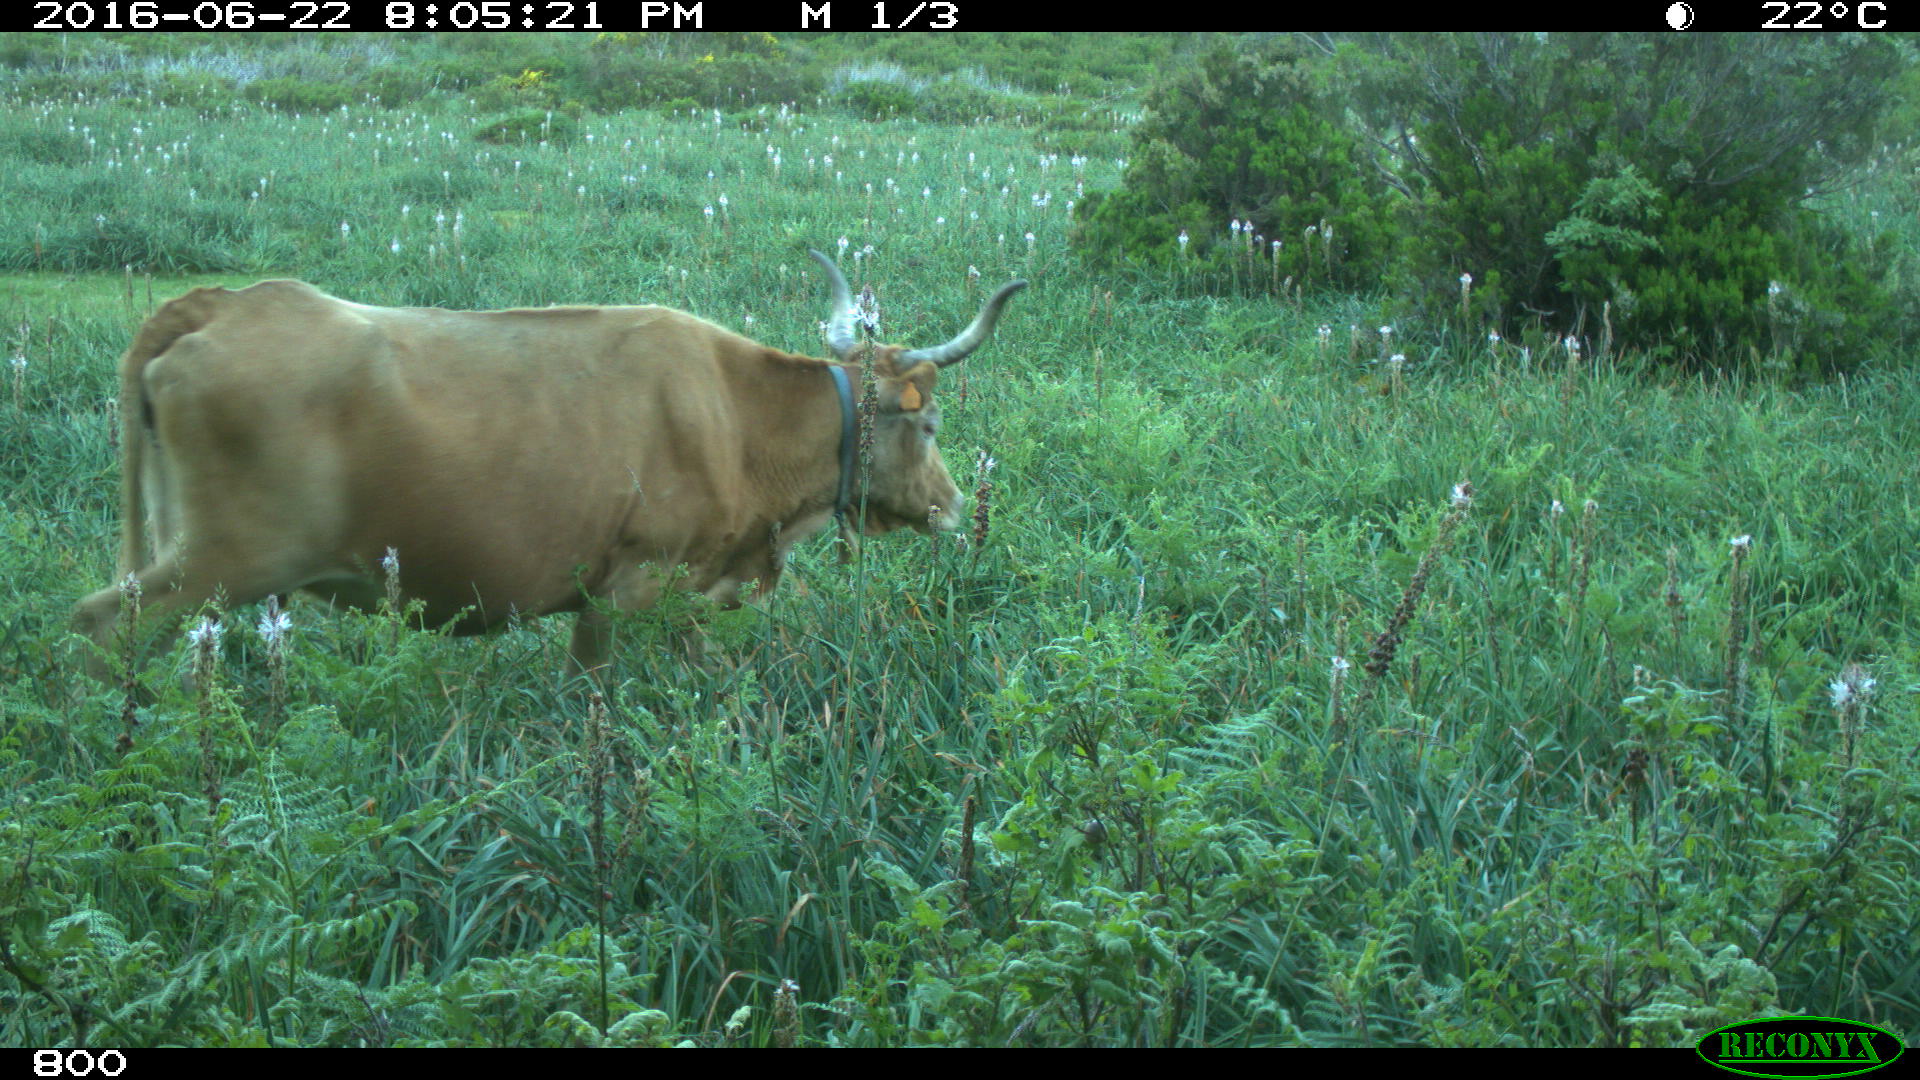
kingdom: Animalia
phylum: Chordata
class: Mammalia
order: Artiodactyla
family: Bovidae
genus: Bos
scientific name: Bos taurus
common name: Domesticated cattle
